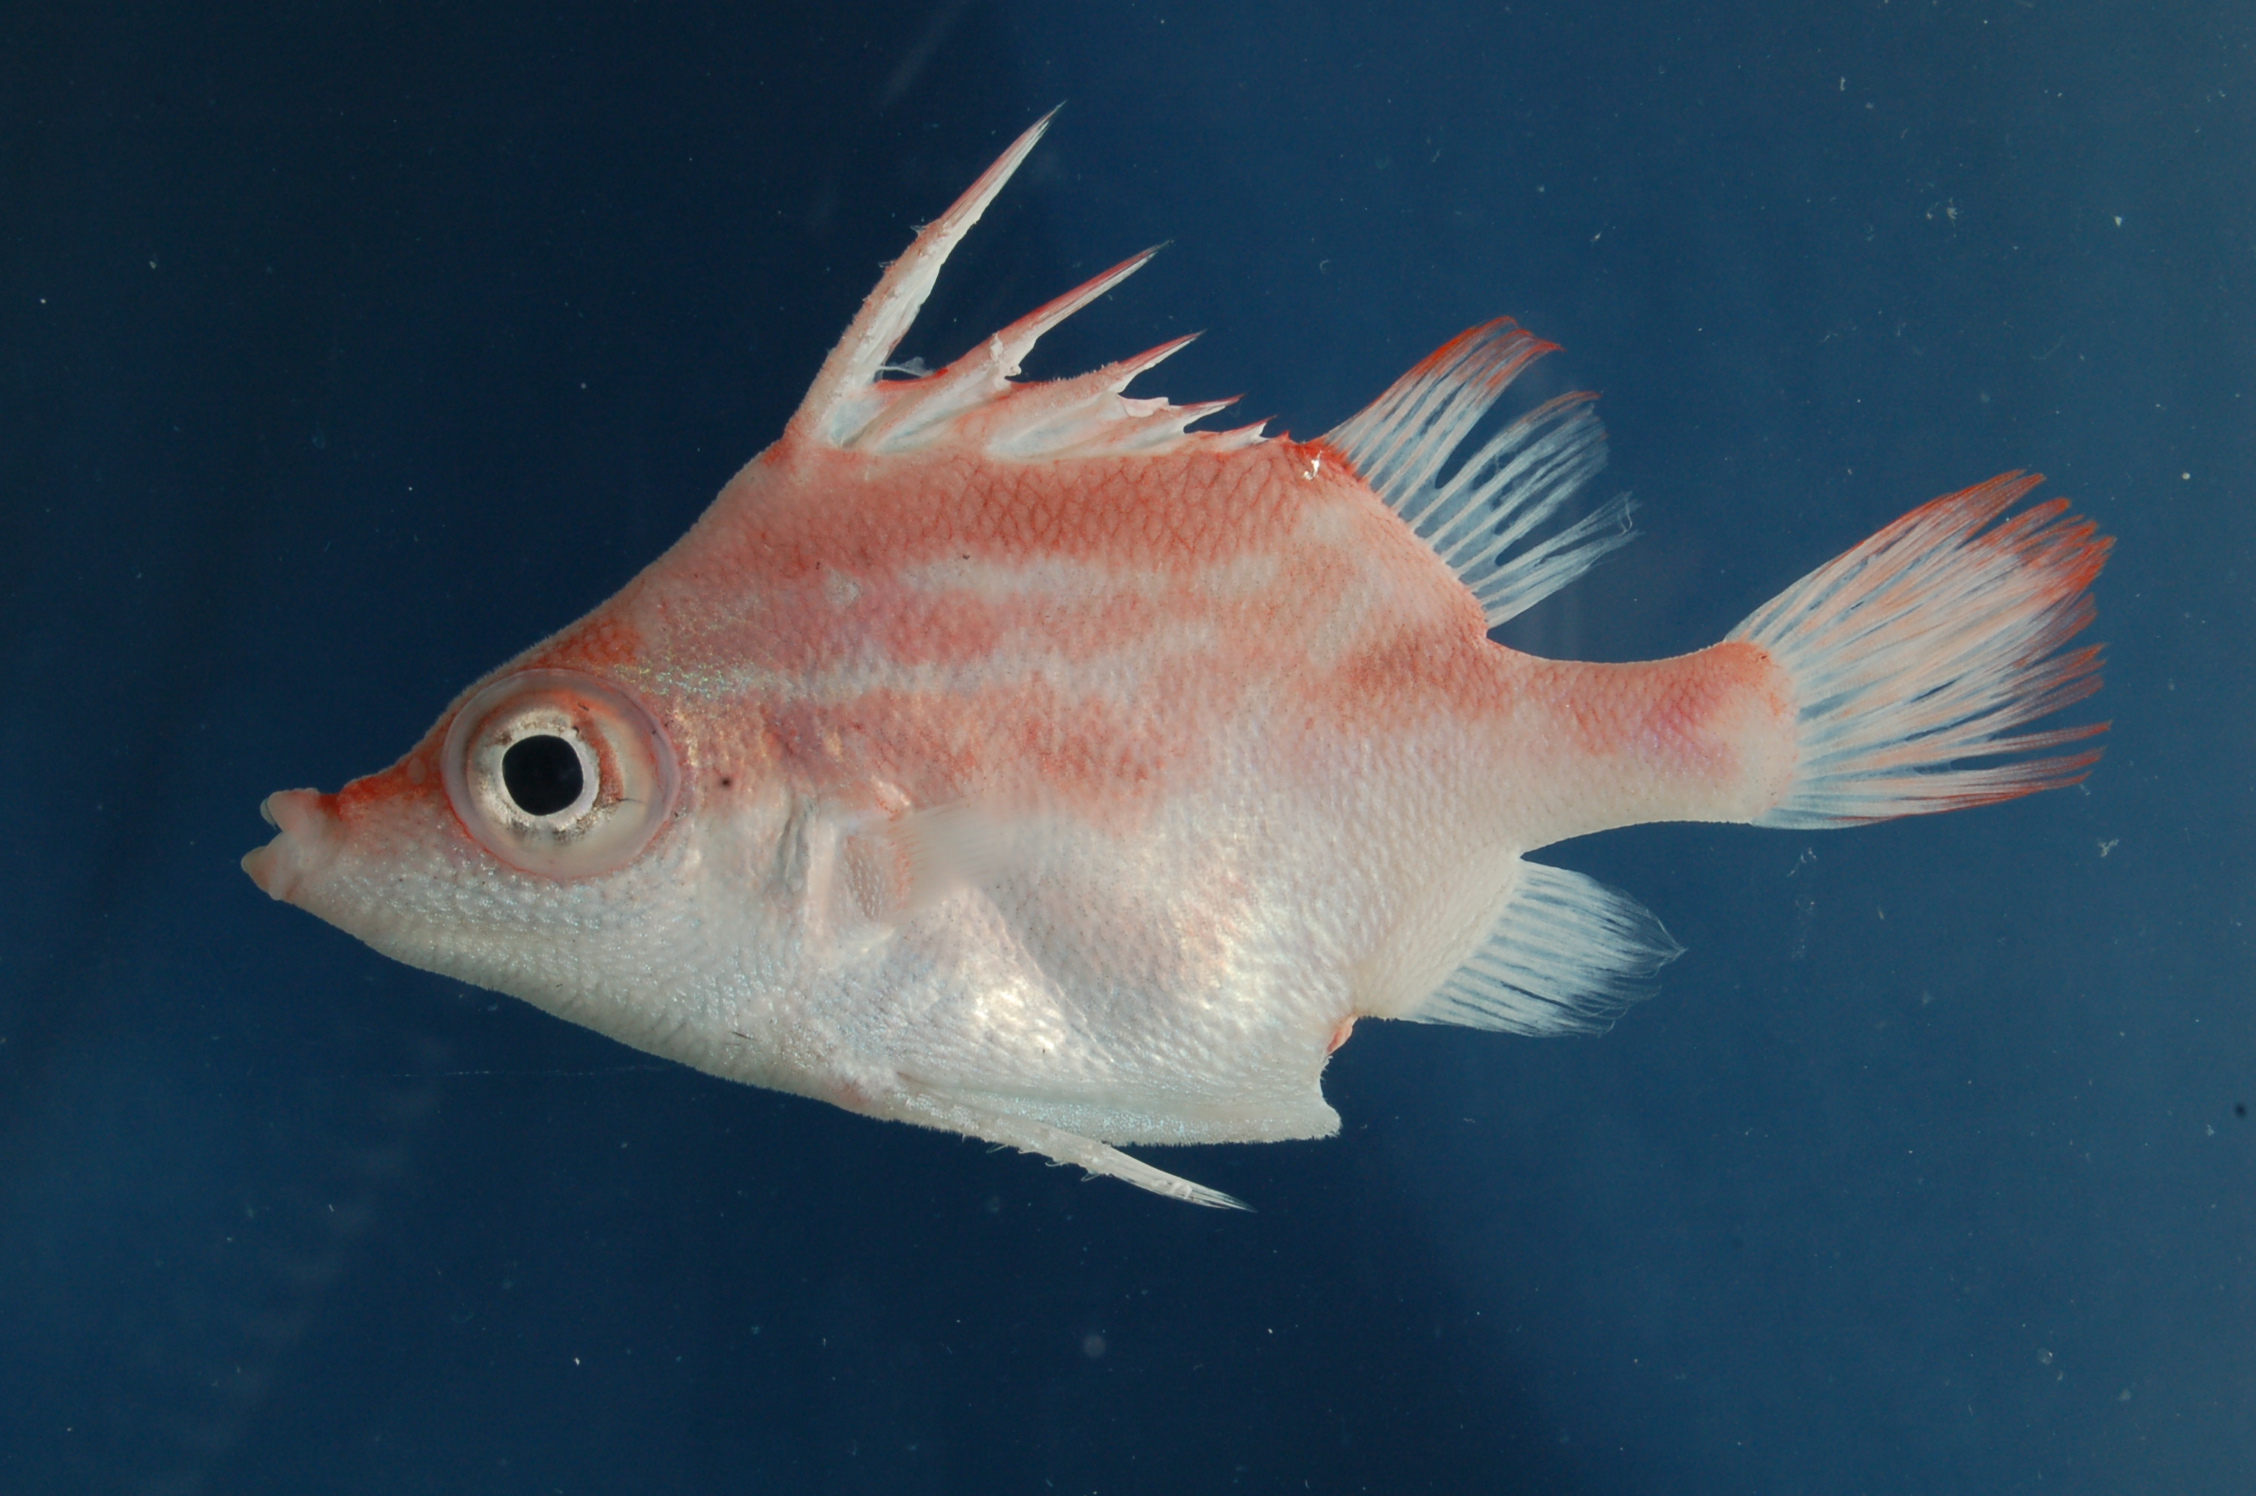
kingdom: Animalia
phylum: Chordata
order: Tetraodontiformes
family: Triacanthodidae
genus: Paratriacanthodes
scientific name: Paratriacanthodes retrospinis
